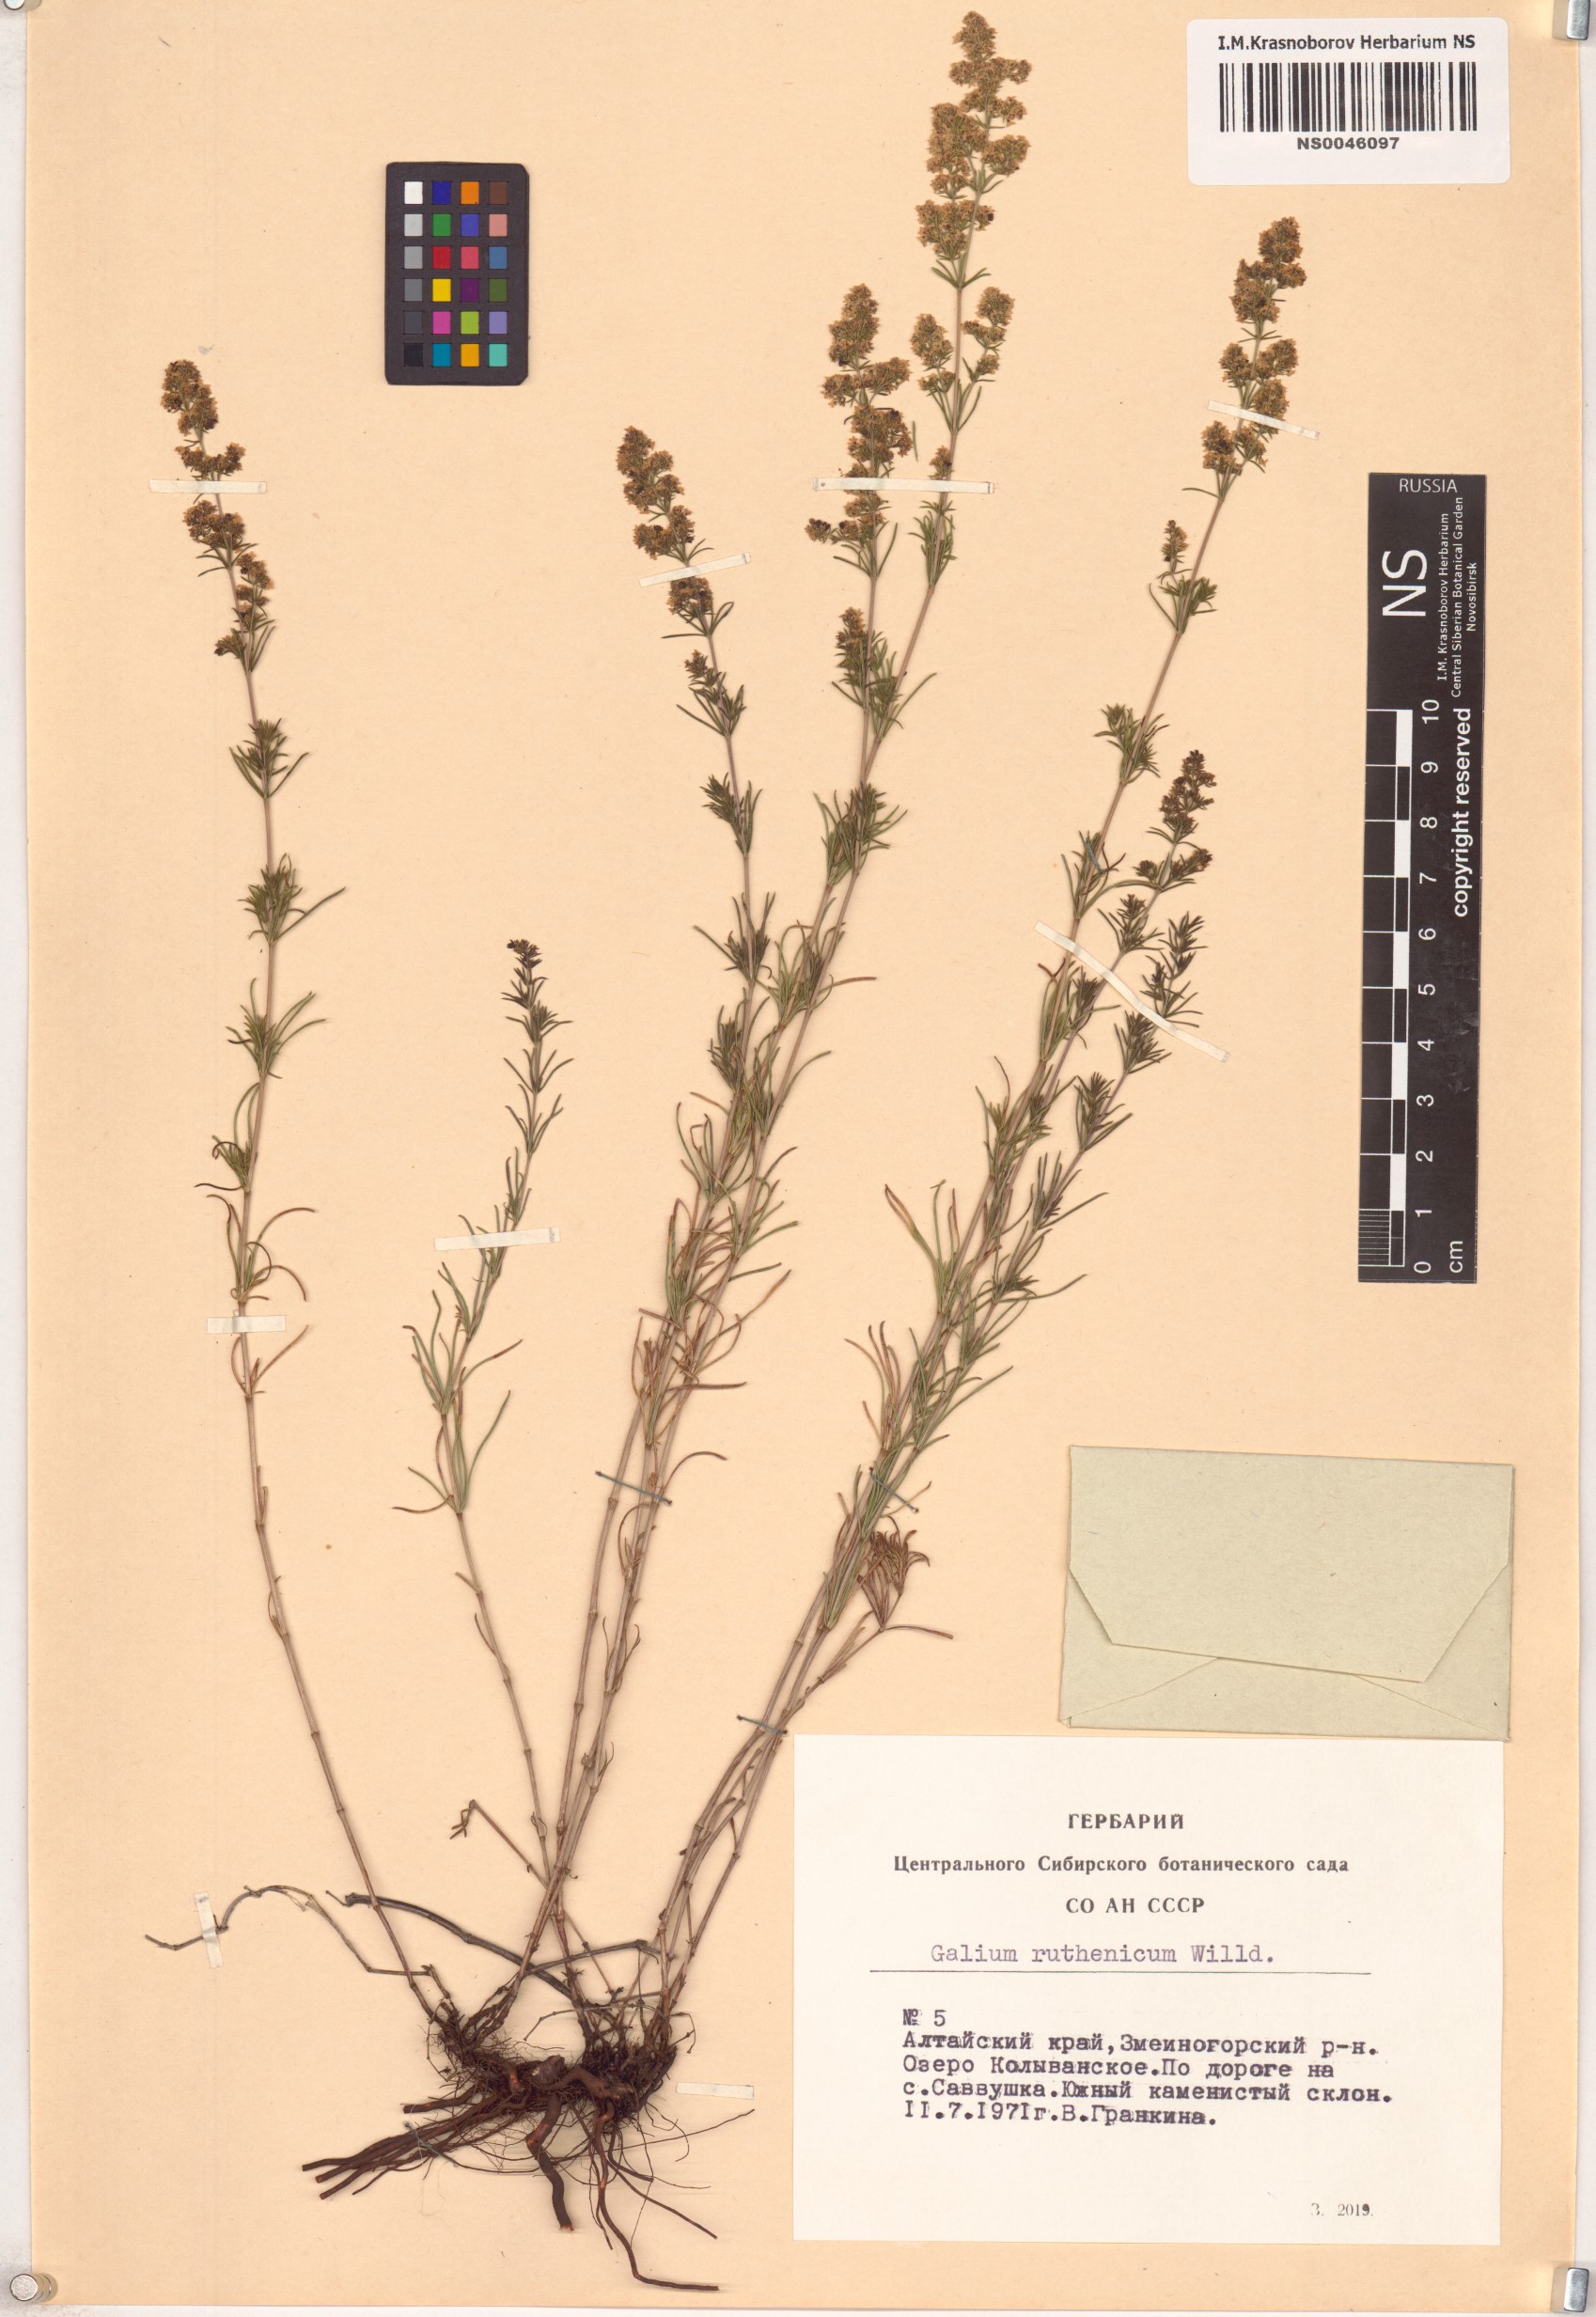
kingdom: Plantae
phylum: Tracheophyta
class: Magnoliopsida
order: Gentianales
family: Rubiaceae
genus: Galium
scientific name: Galium verum
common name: Lady's bedstraw
